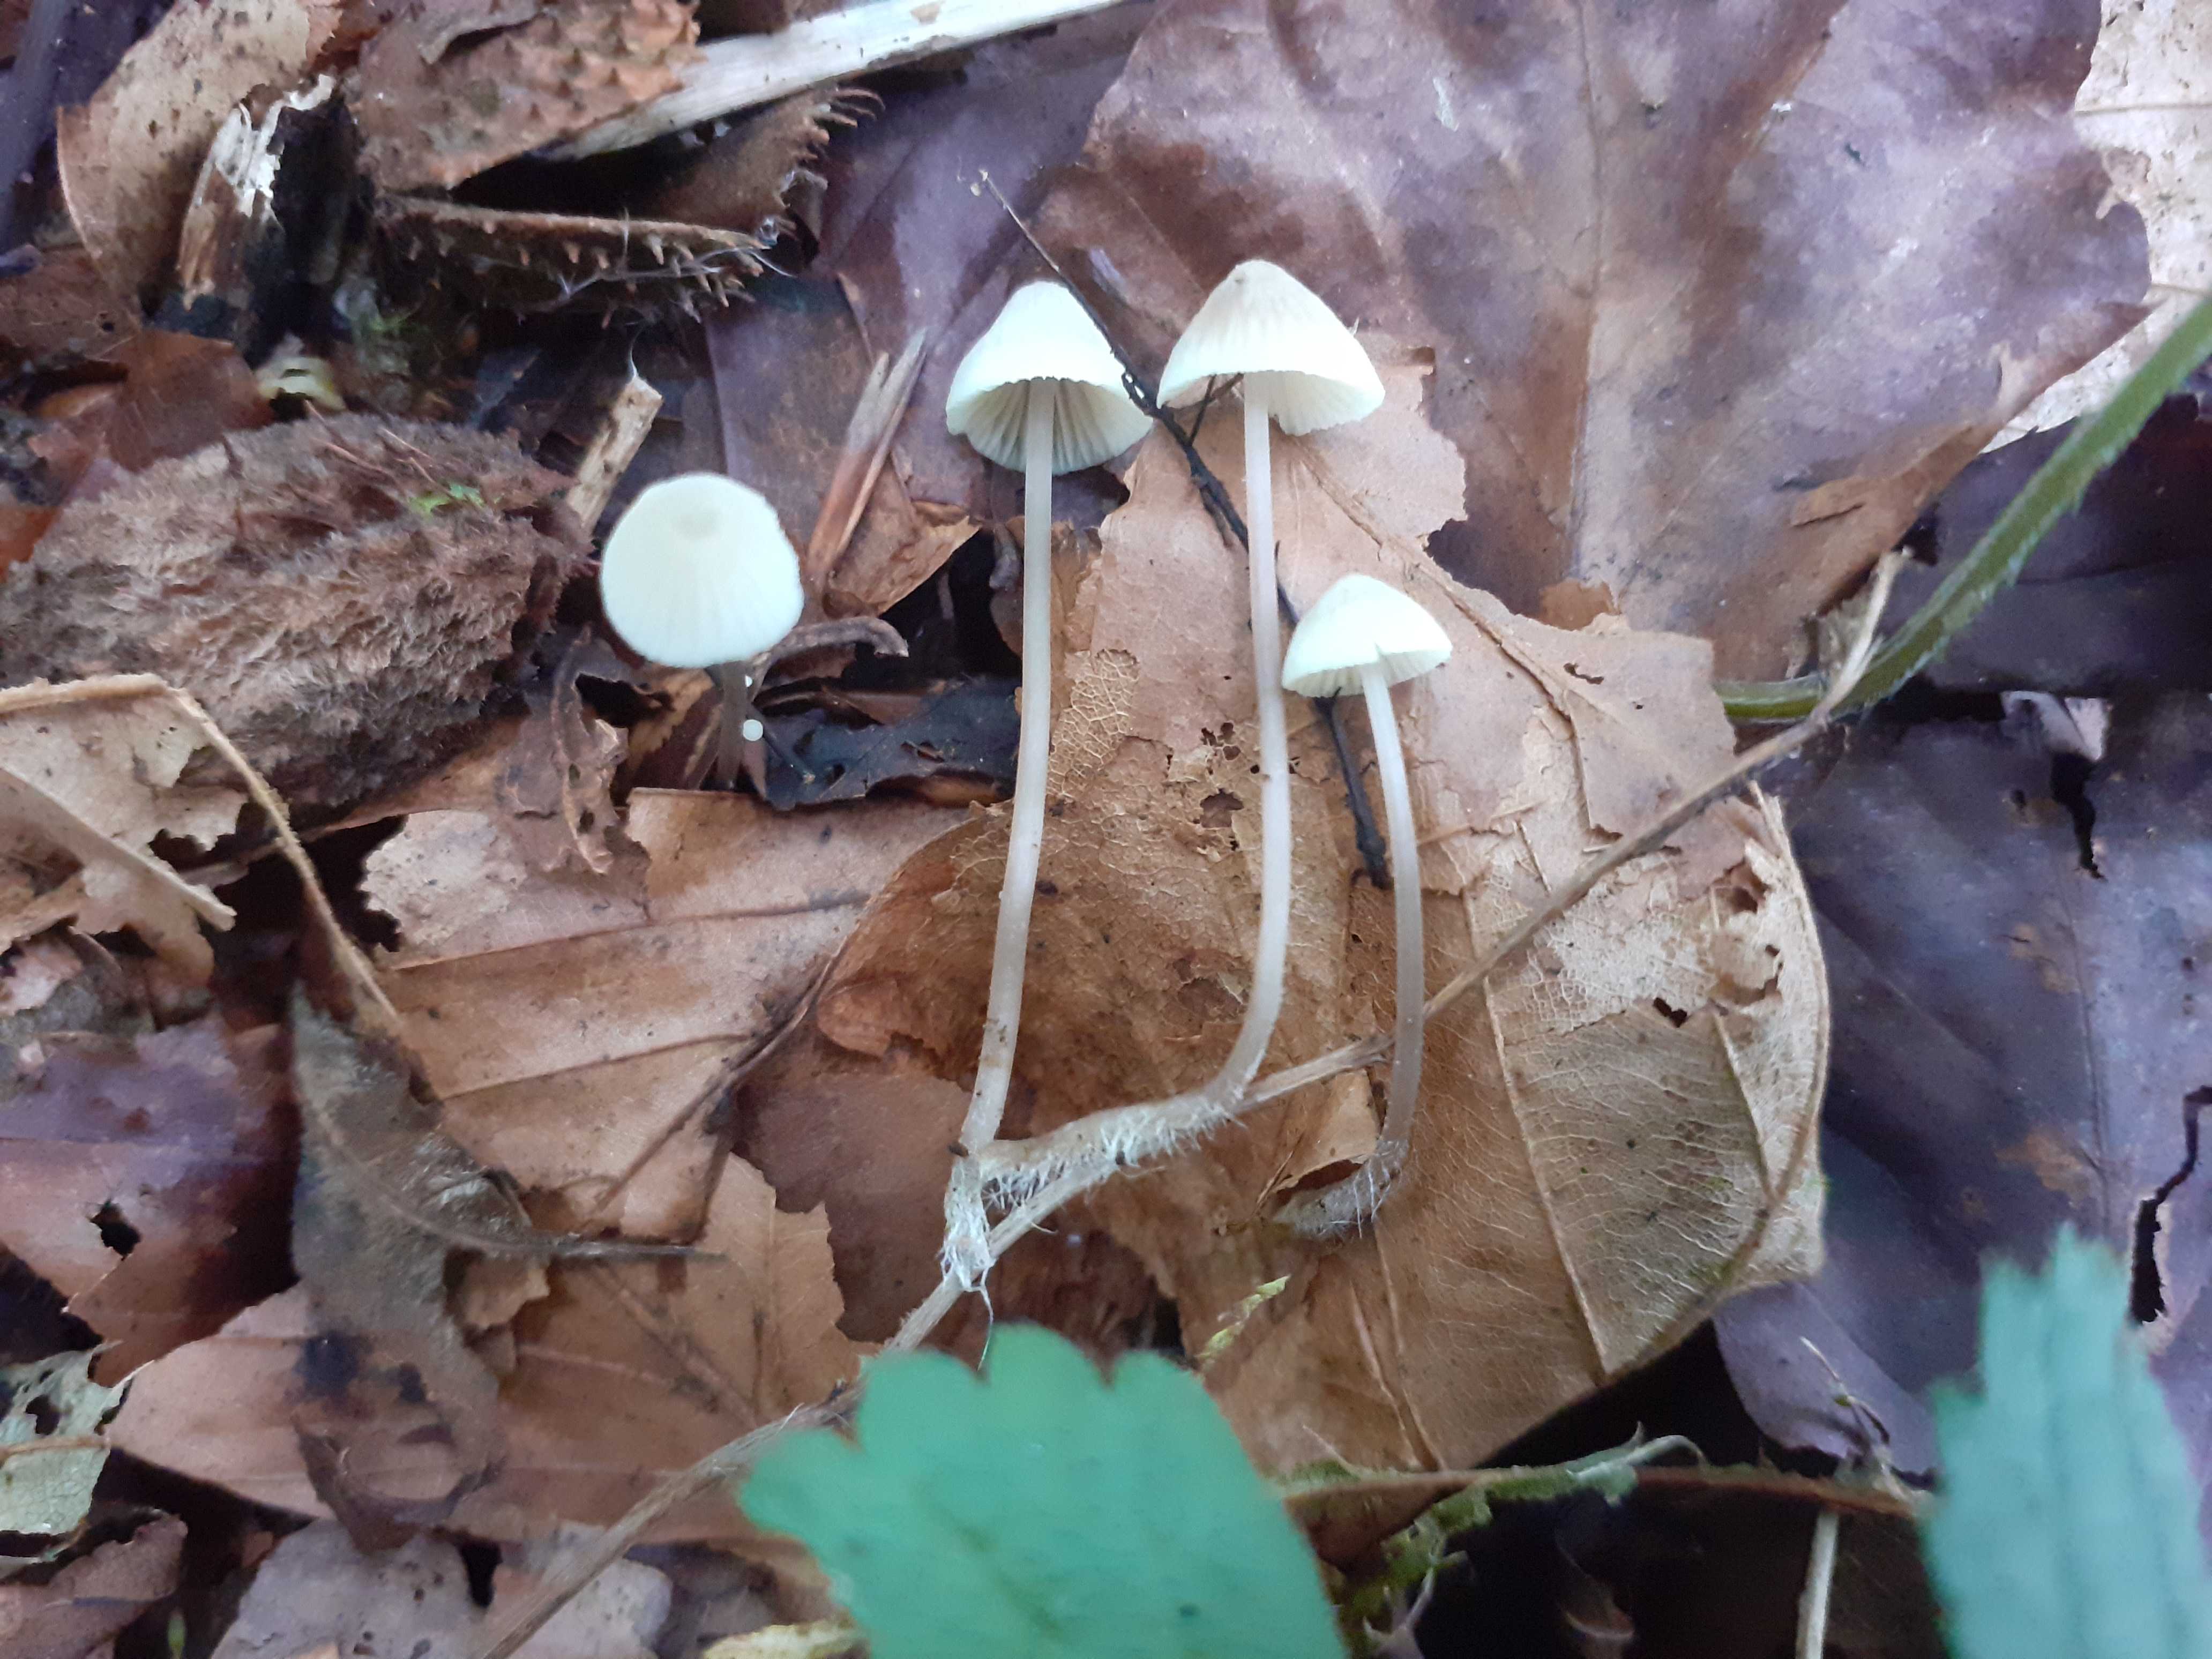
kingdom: Fungi
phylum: Basidiomycota
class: Agaricomycetes
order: Agaricales
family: Mycenaceae
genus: Mycena
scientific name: Mycena flavescens
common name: grågul huesvamp
